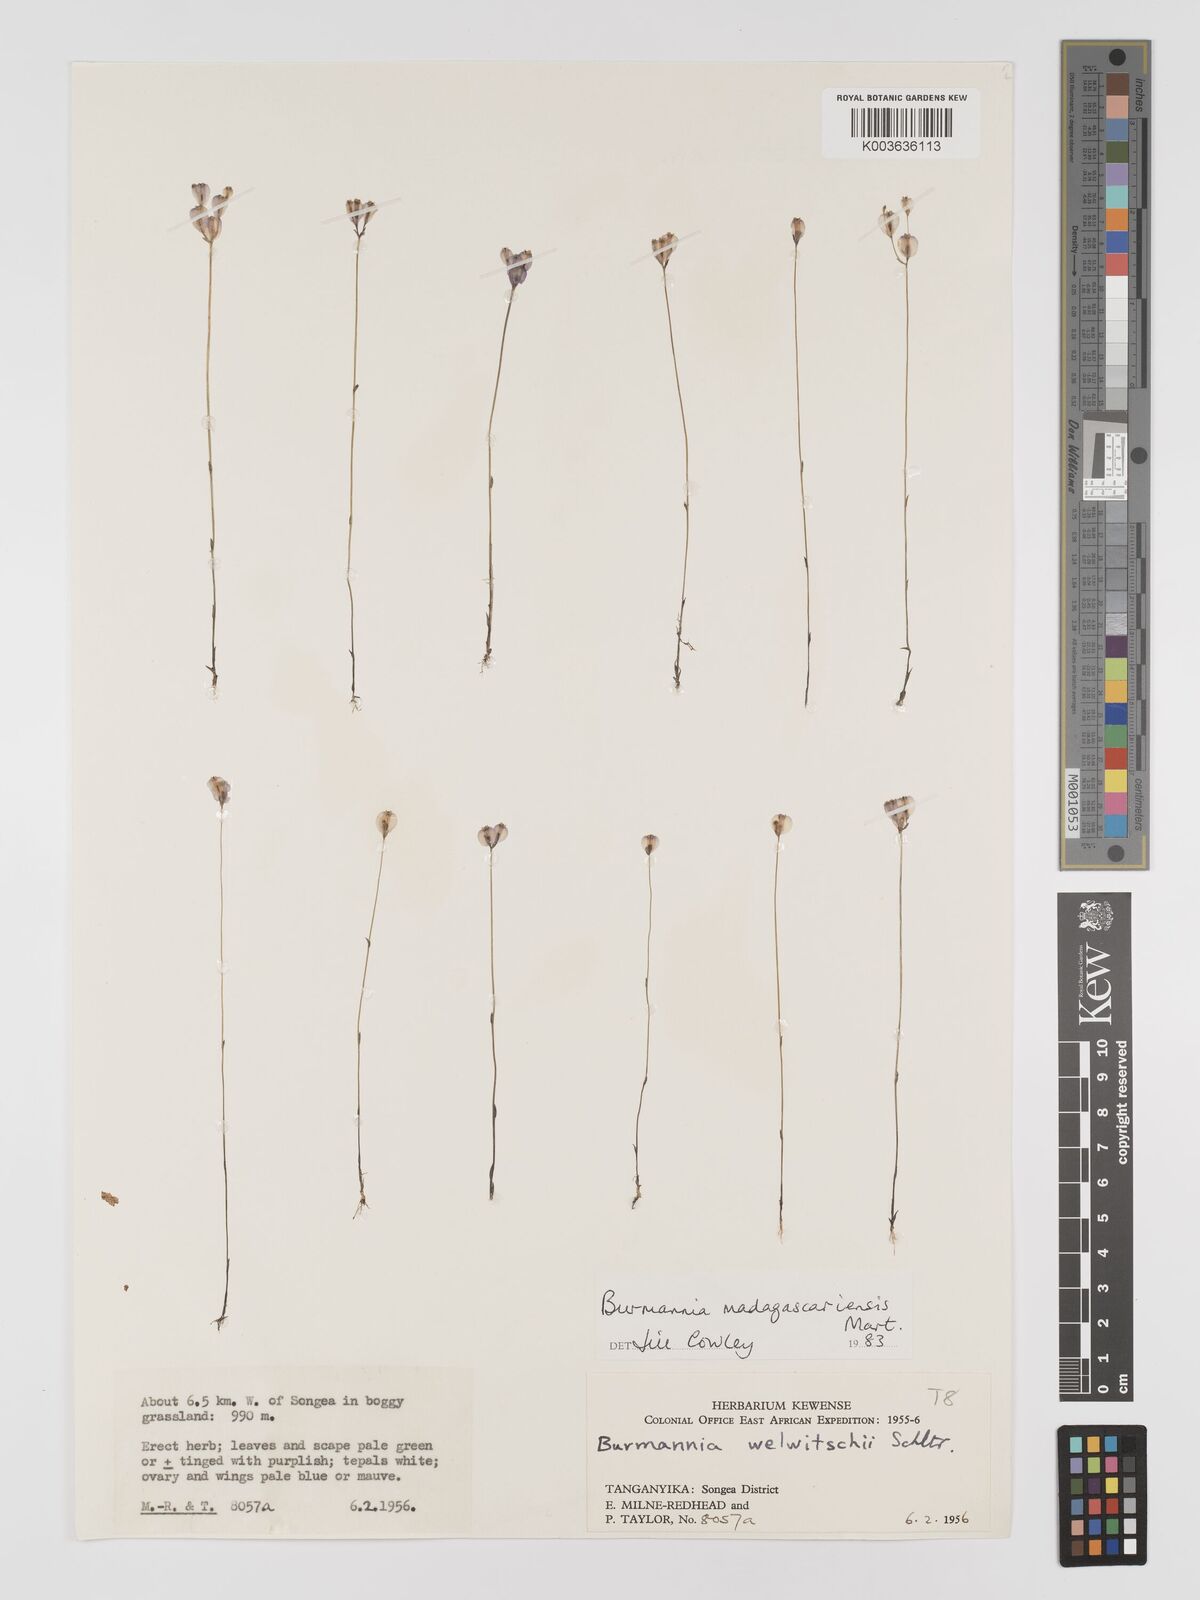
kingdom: Plantae
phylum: Tracheophyta
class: Liliopsida
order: Dioscoreales
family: Burmanniaceae
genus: Burmannia
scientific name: Burmannia madagascariensis
